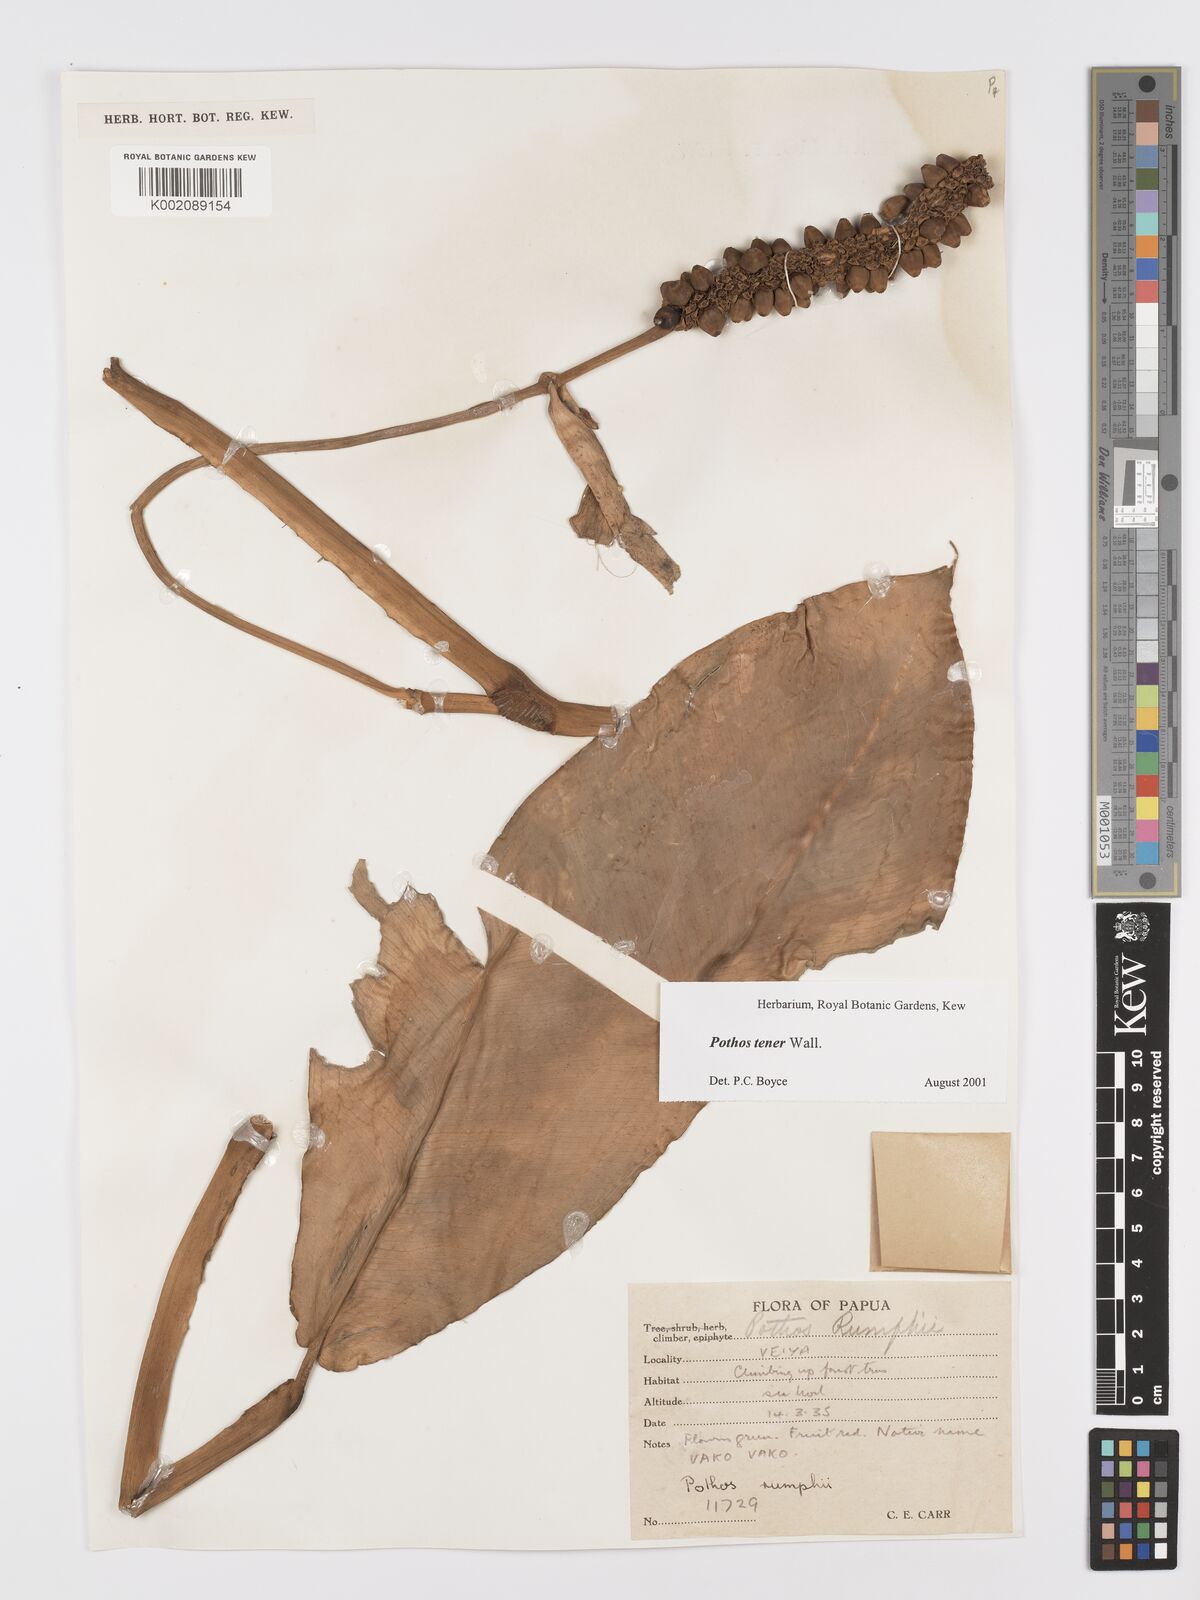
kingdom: Plantae
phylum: Tracheophyta
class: Liliopsida
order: Alismatales
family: Araceae
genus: Pothos
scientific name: Pothos tener
